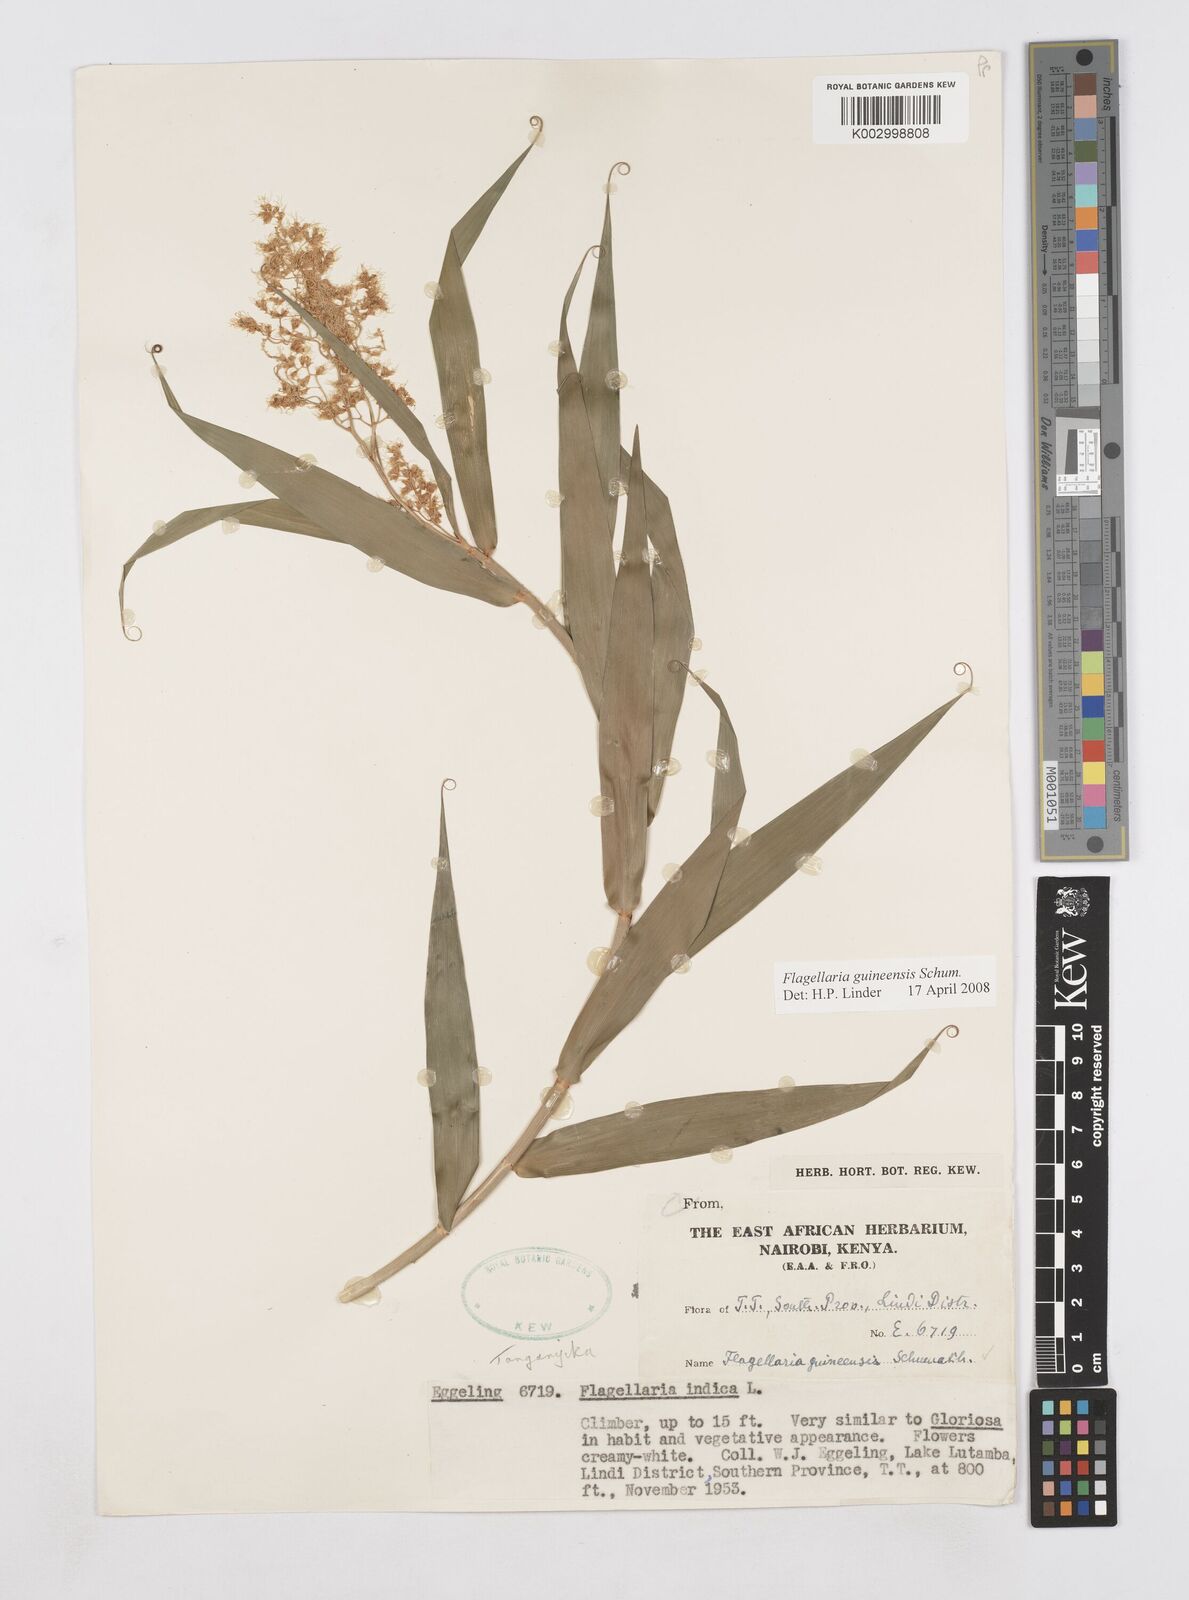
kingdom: Plantae
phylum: Tracheophyta
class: Liliopsida
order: Poales
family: Flagellariaceae
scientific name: Flagellariaceae
